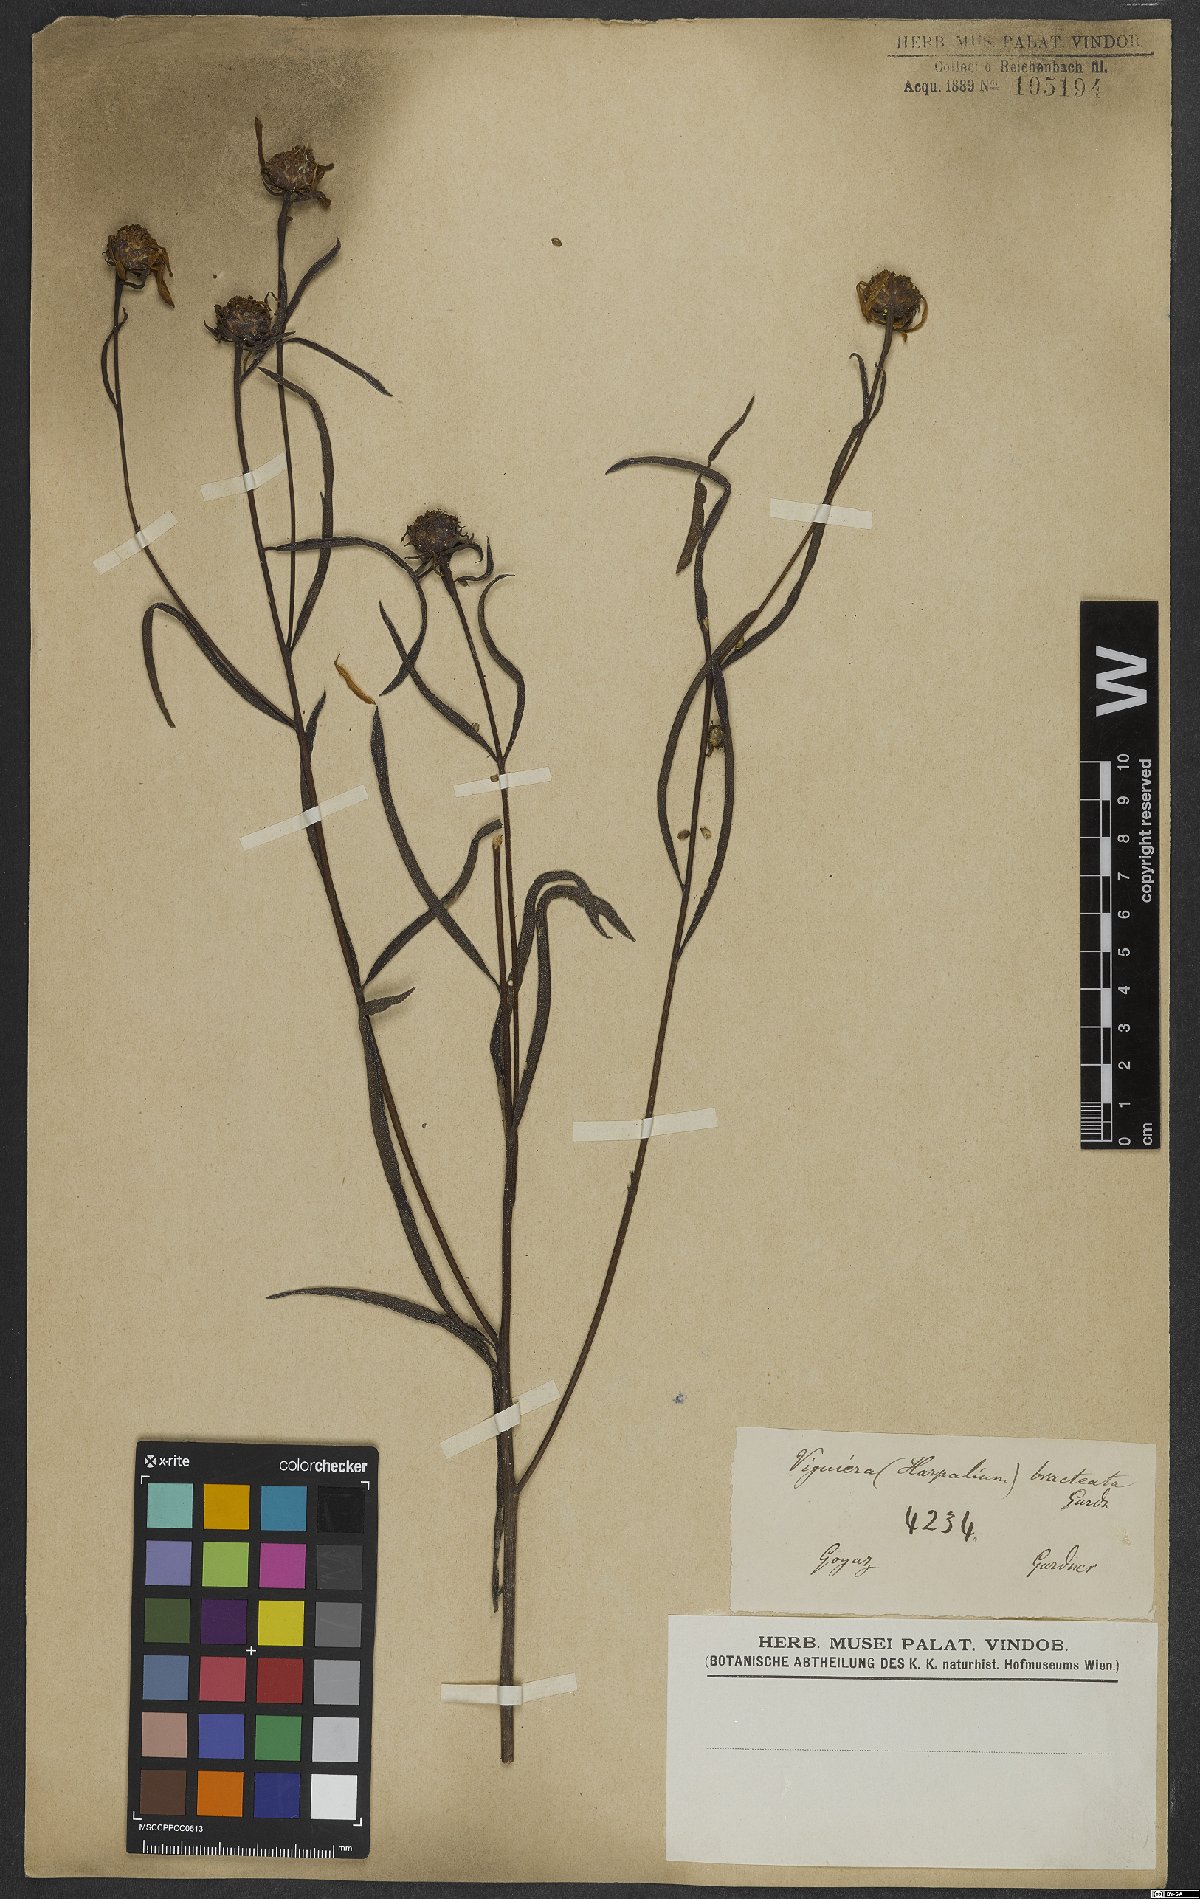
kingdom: Plantae
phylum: Tracheophyta
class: Magnoliopsida
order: Asterales
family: Asteraceae
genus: Aldama
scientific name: Aldama bracteata
